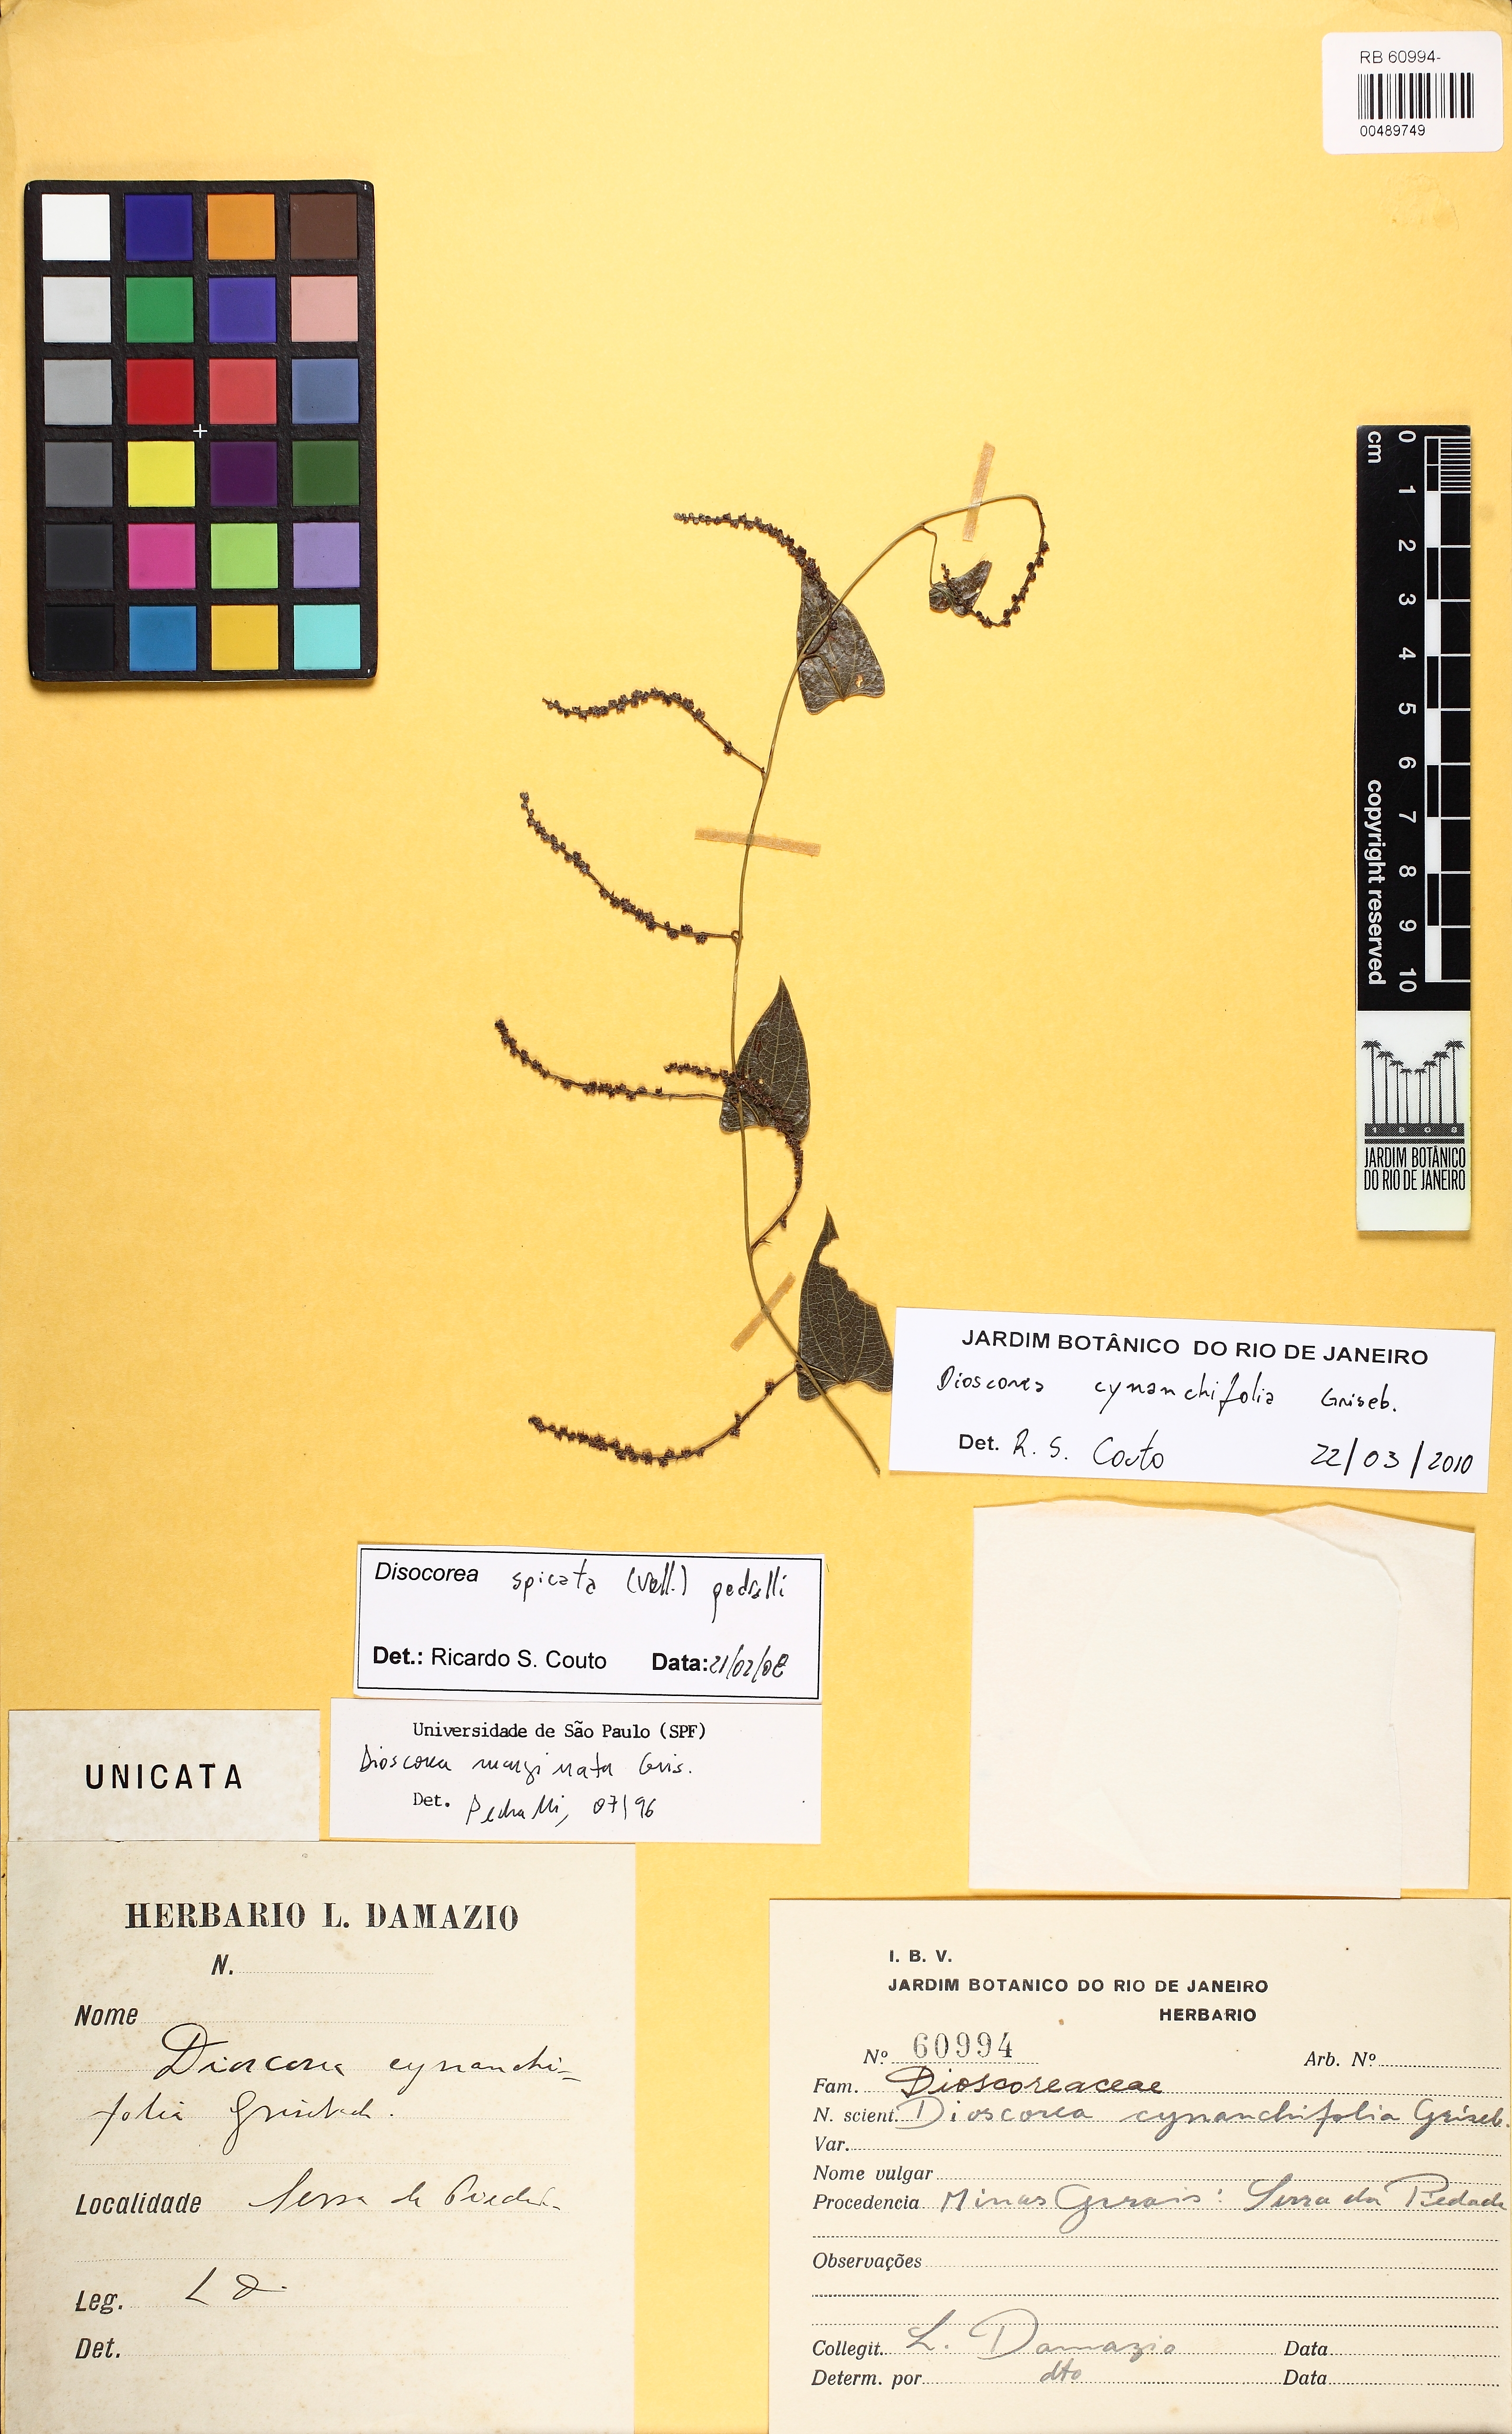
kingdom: Plantae
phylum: Tracheophyta
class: Liliopsida
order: Dioscoreales
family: Dioscoreaceae
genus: Dioscorea
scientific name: Dioscorea marginata
